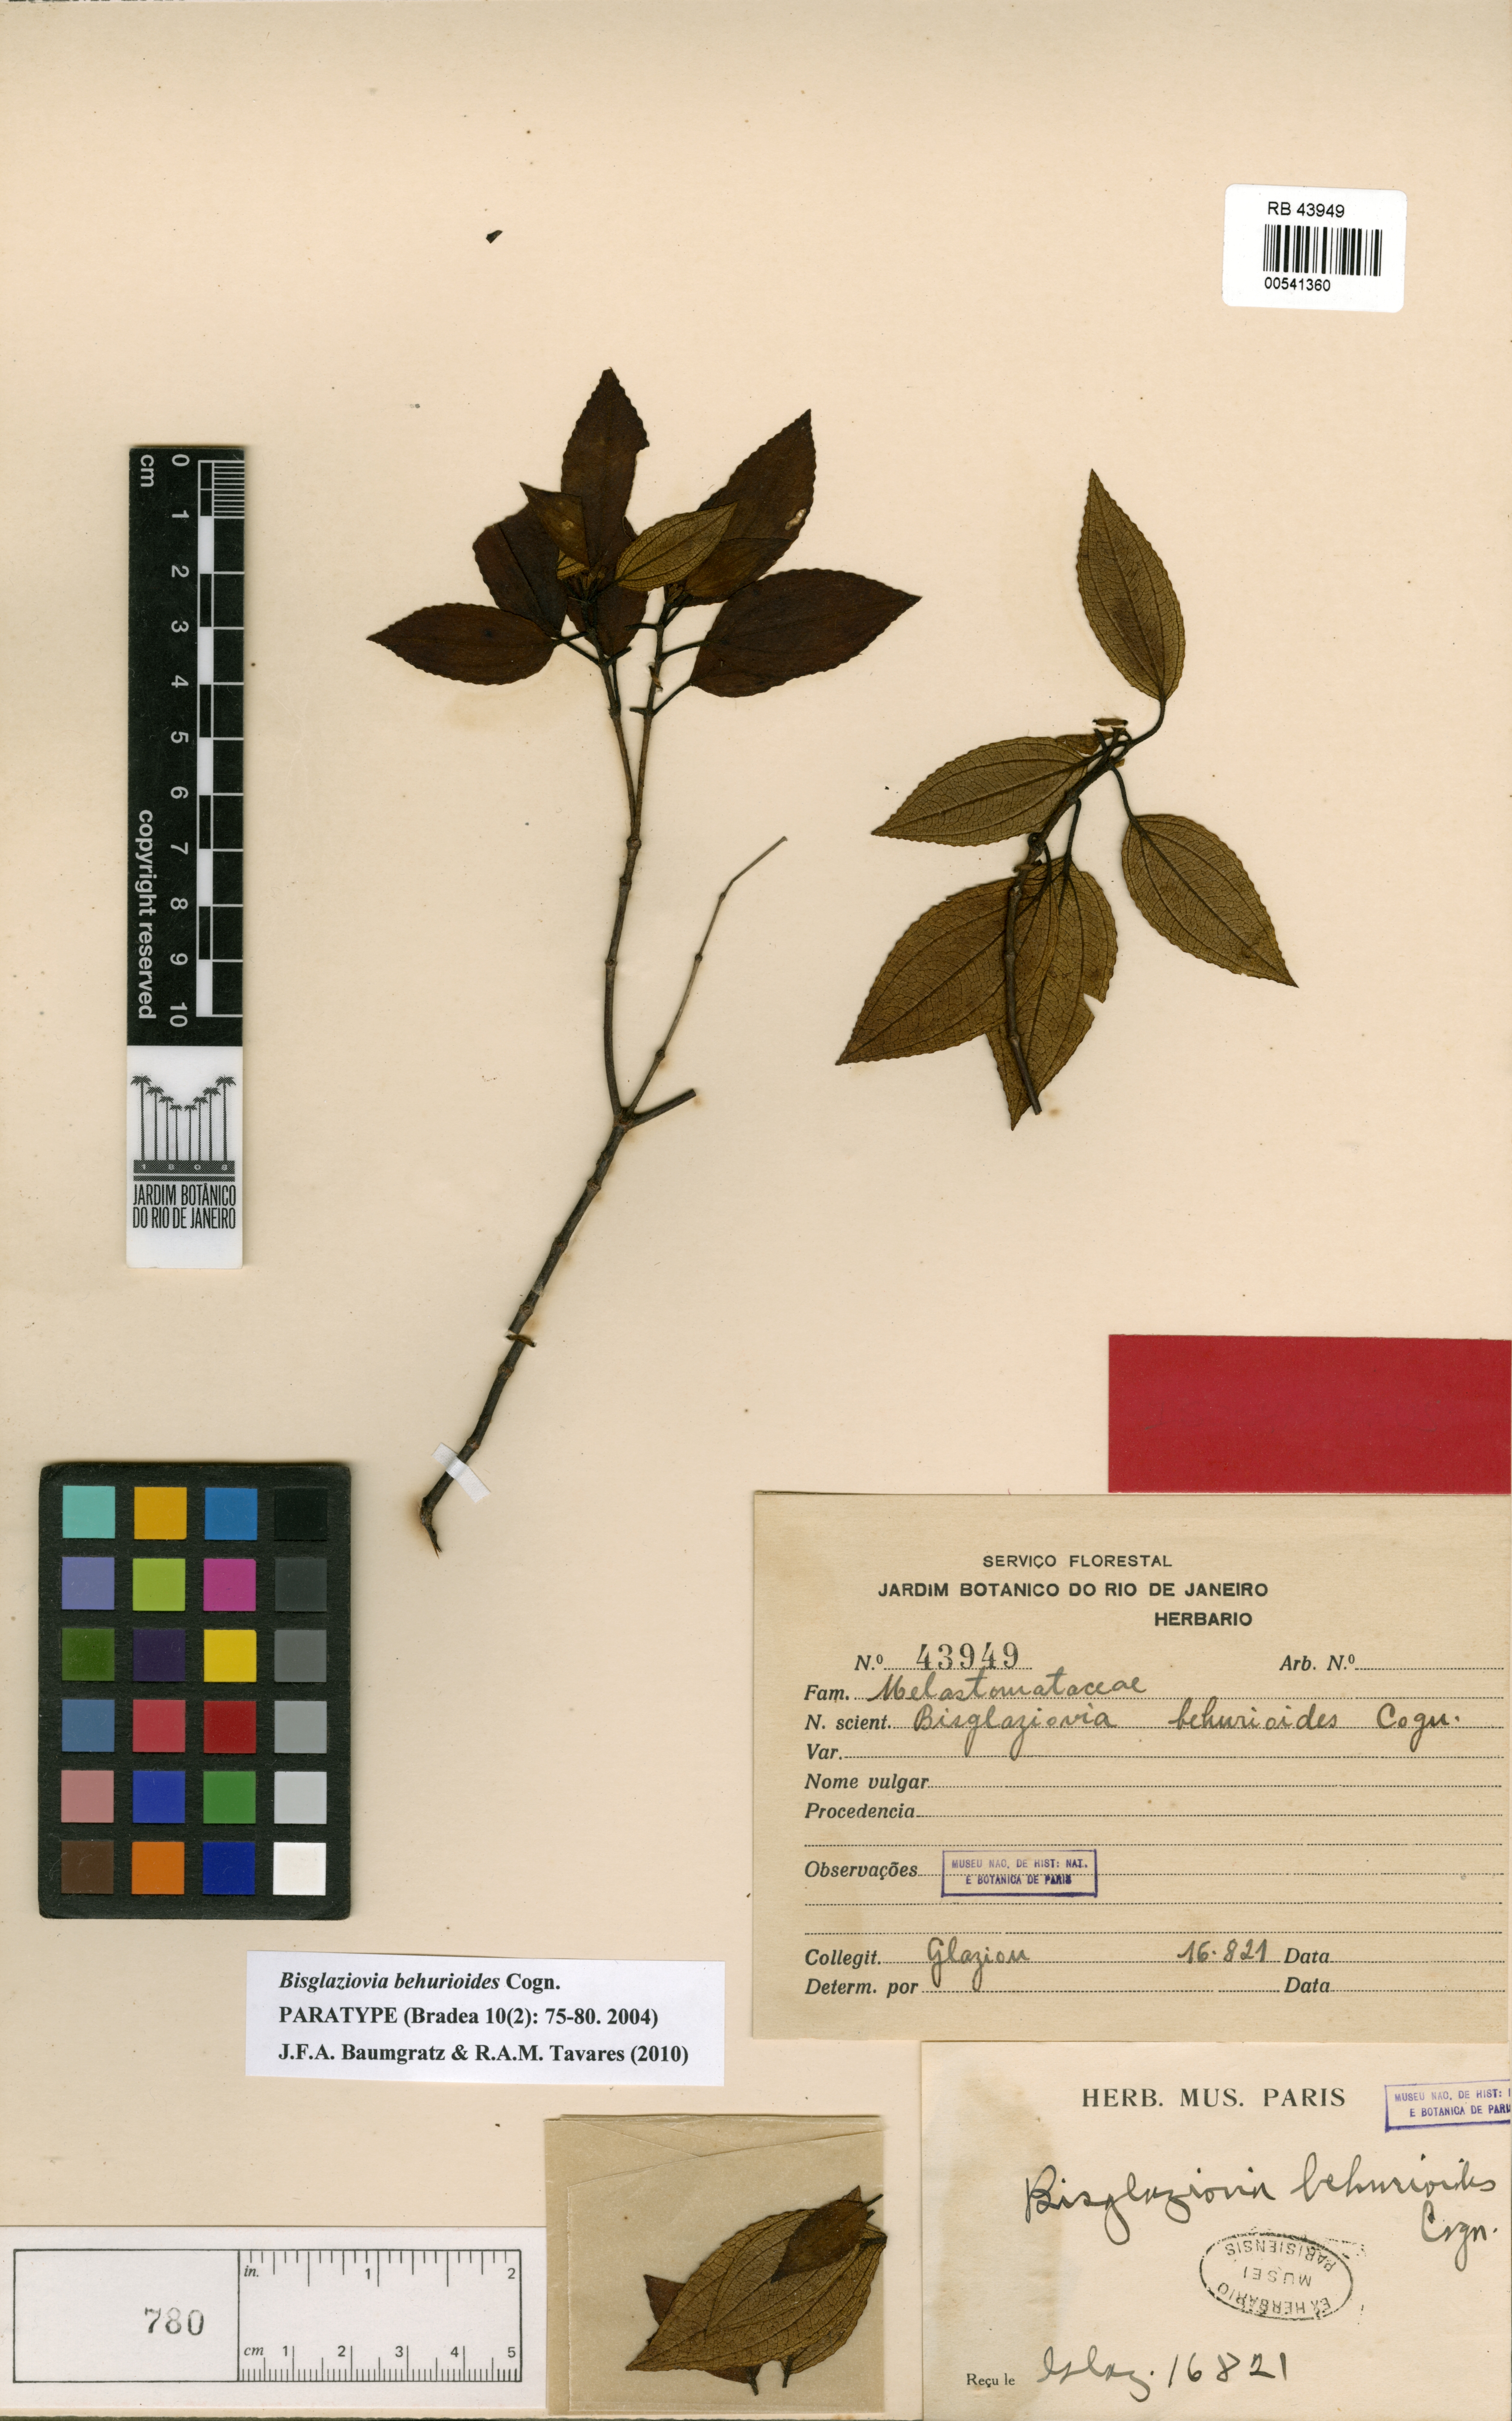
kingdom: Plantae
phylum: Tracheophyta
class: Magnoliopsida
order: Myrtales
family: Melastomataceae
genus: Huberia
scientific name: Huberia mourae
